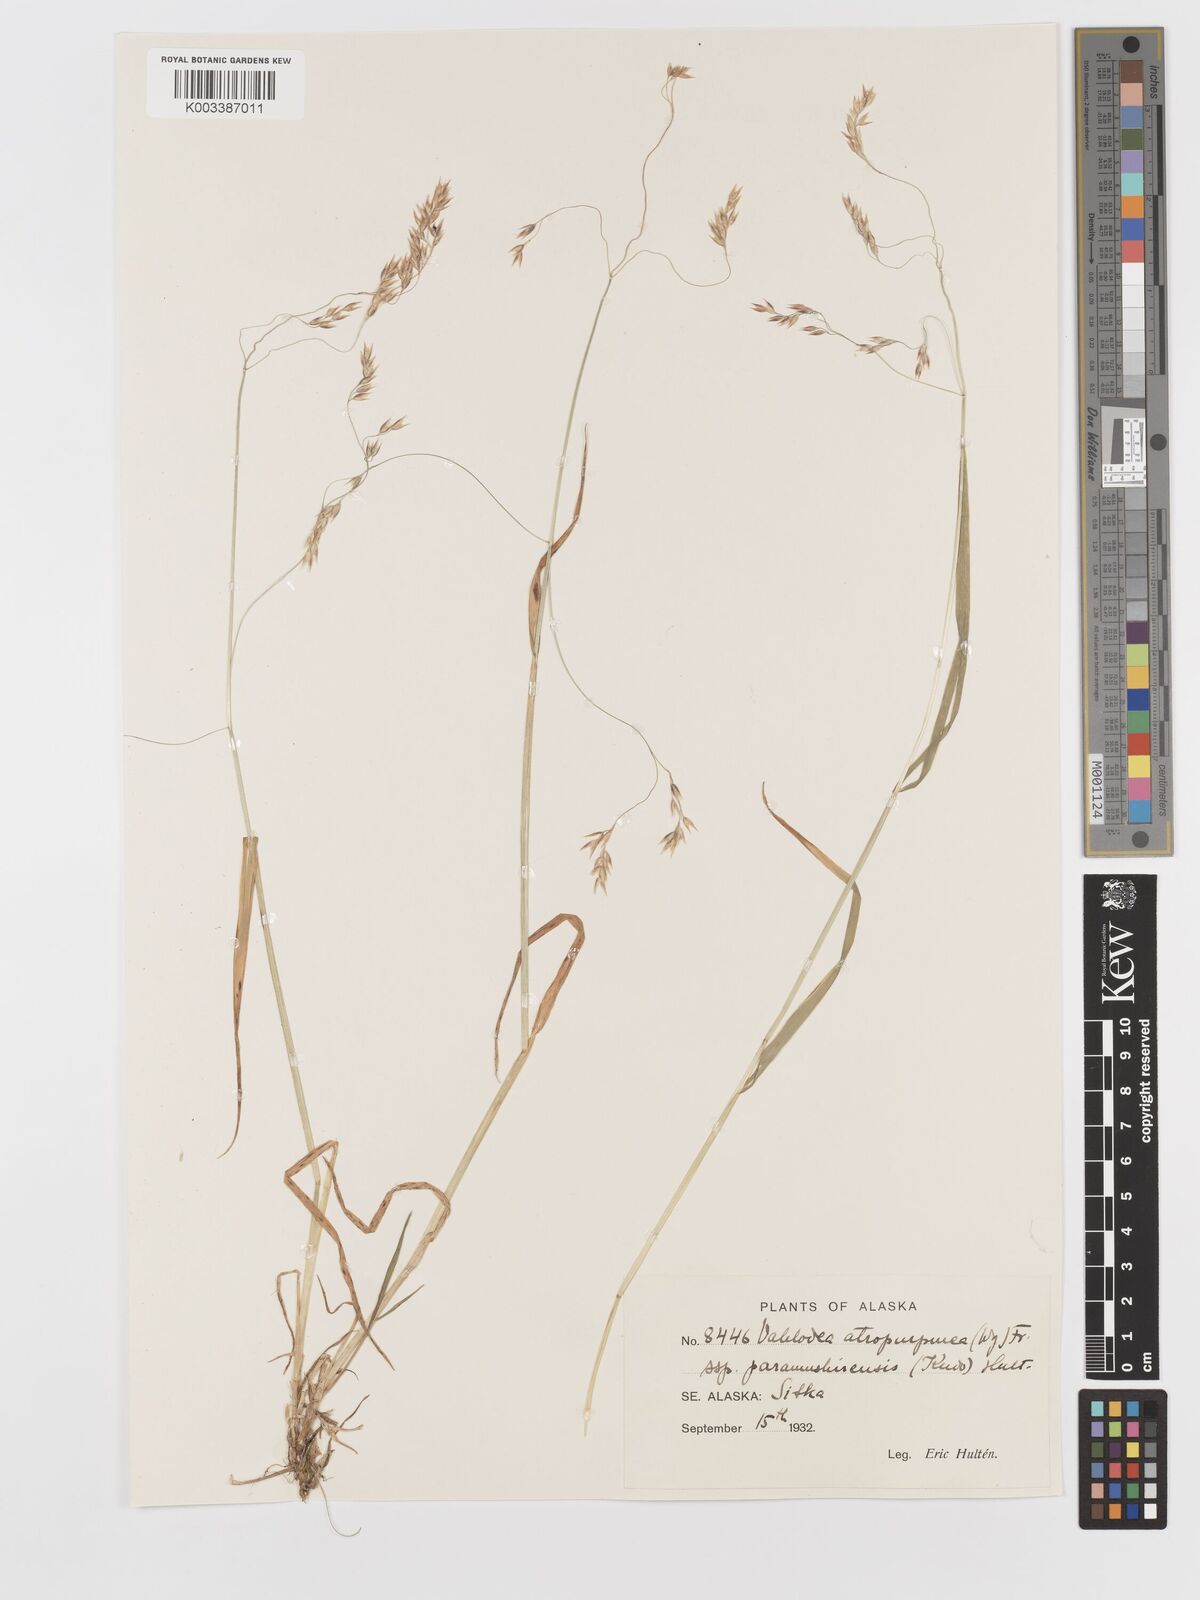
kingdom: Plantae
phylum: Tracheophyta
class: Liliopsida
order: Poales
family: Poaceae
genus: Vahlodea
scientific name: Vahlodea atropurpurea
